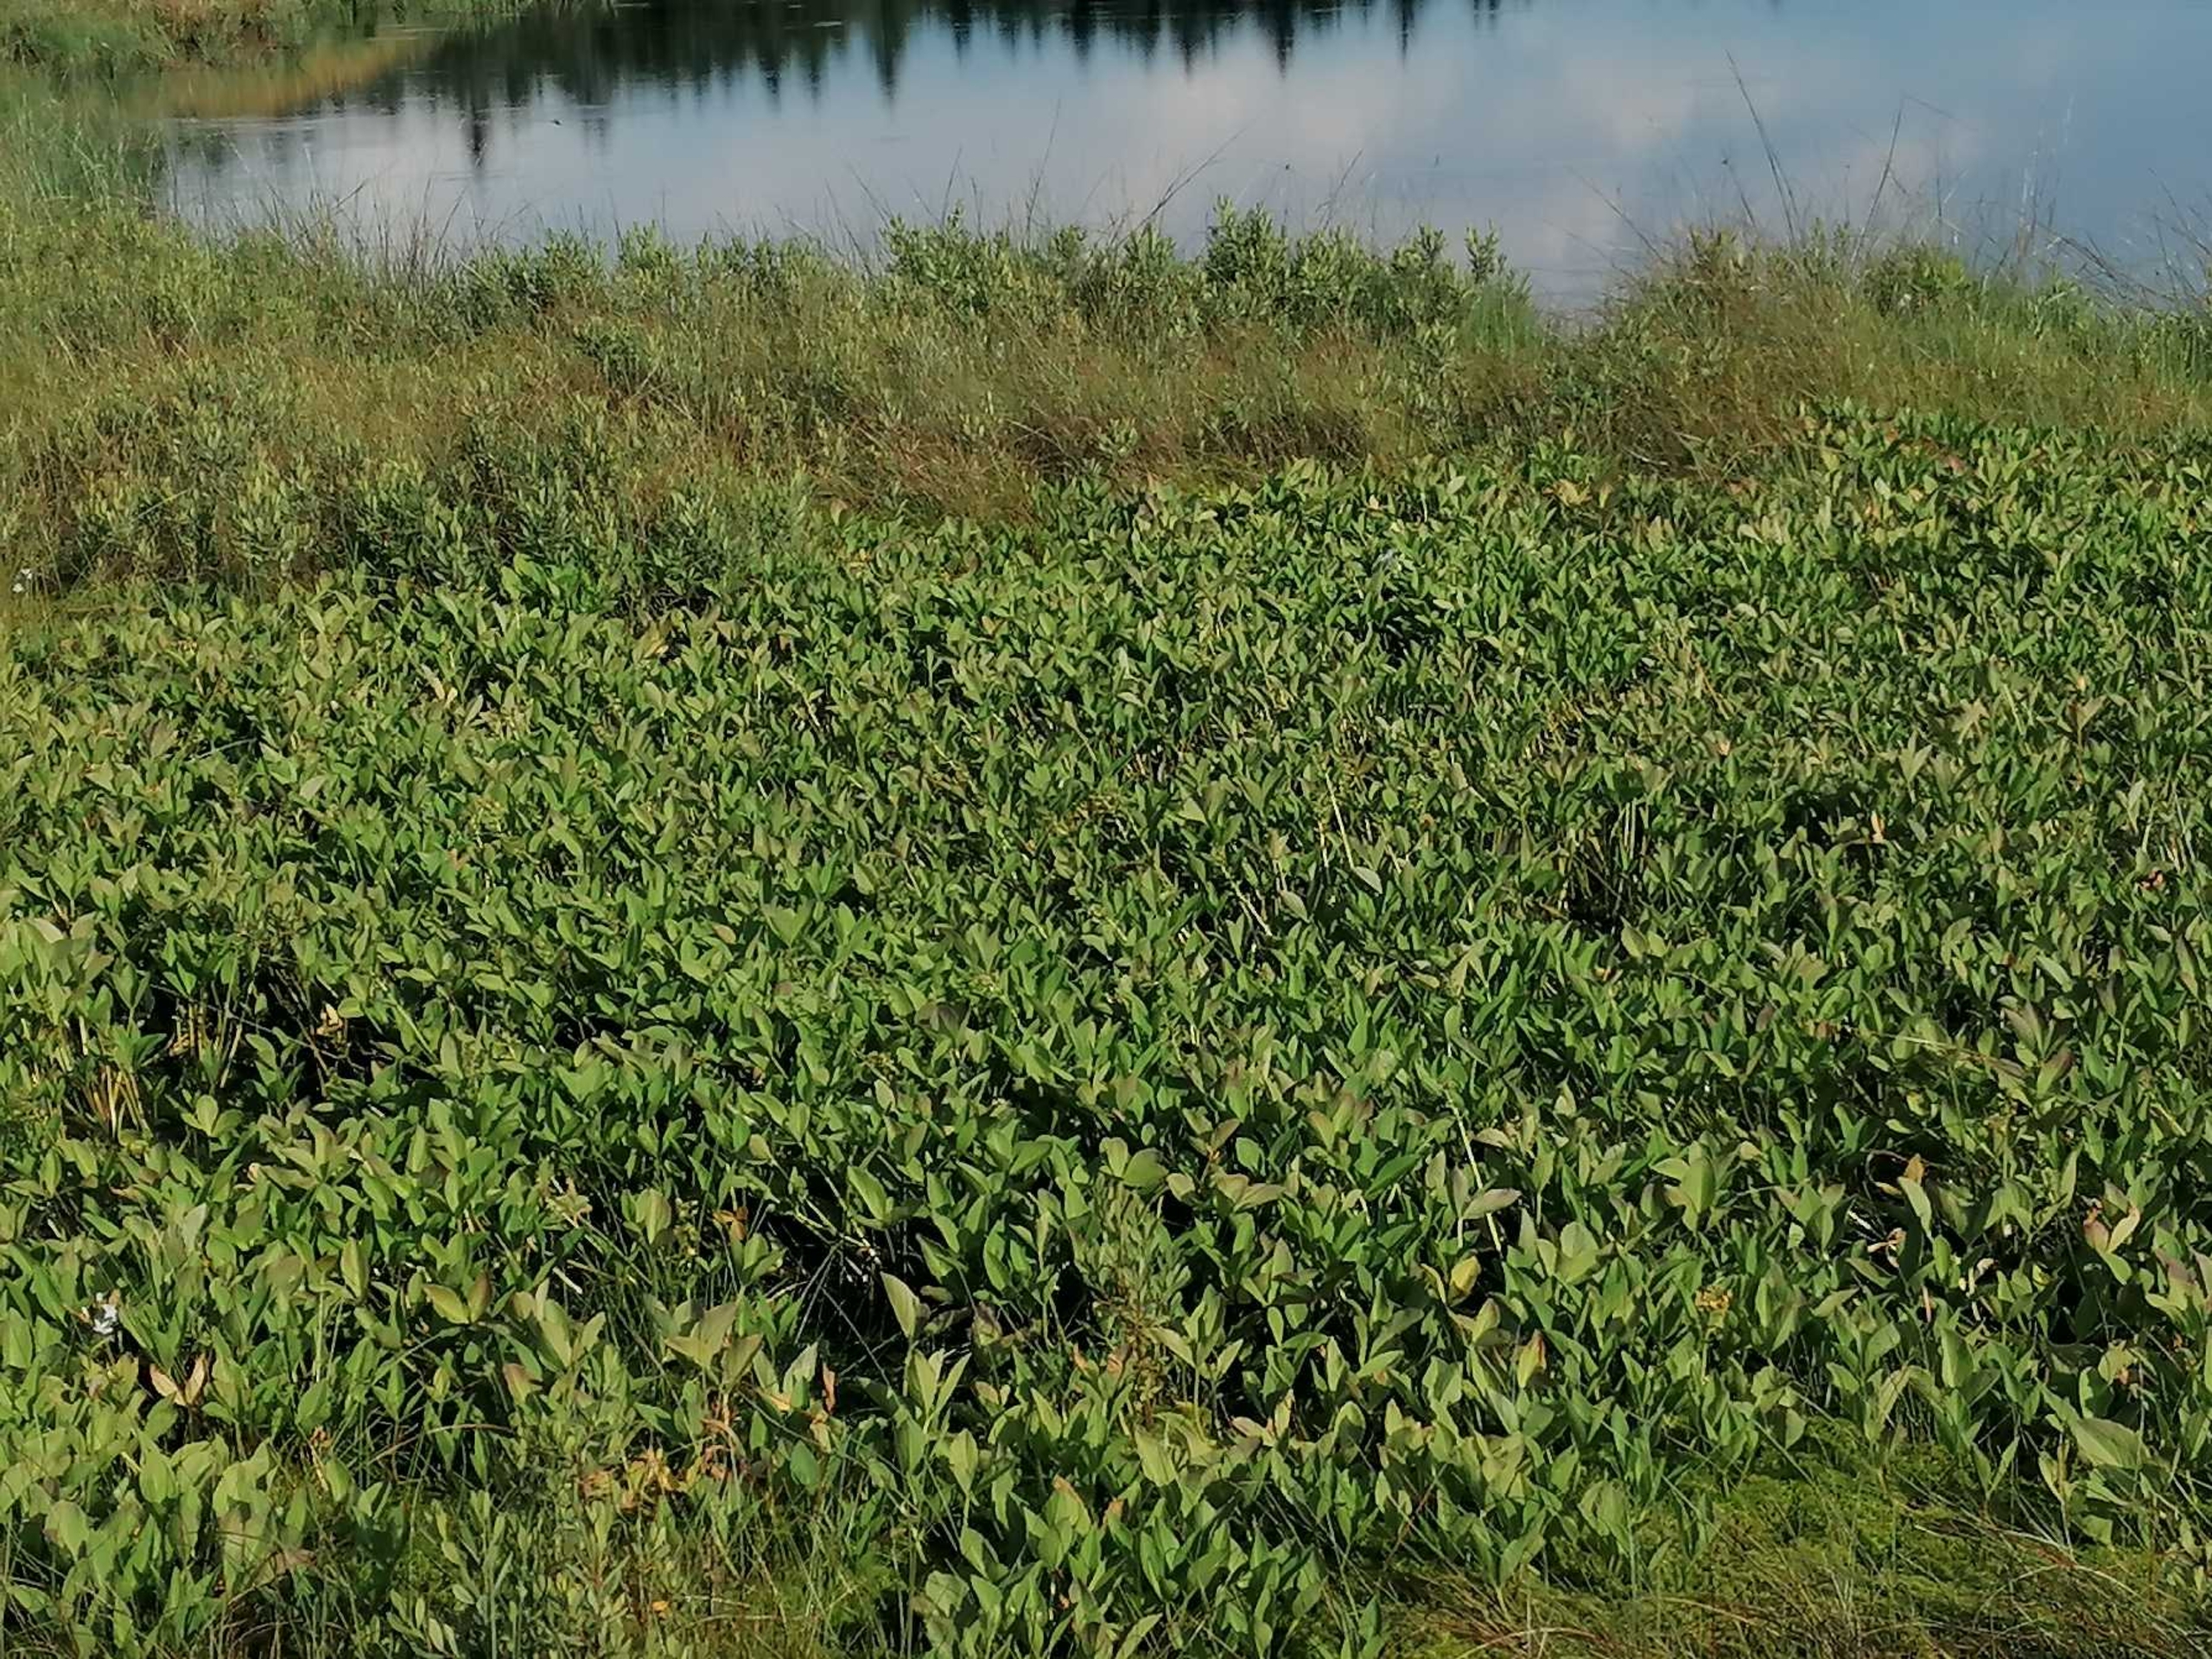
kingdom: Plantae
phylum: Tracheophyta
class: Magnoliopsida
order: Asterales
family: Menyanthaceae
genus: Menyanthes
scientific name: Menyanthes trifoliata
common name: Bukkeblad
